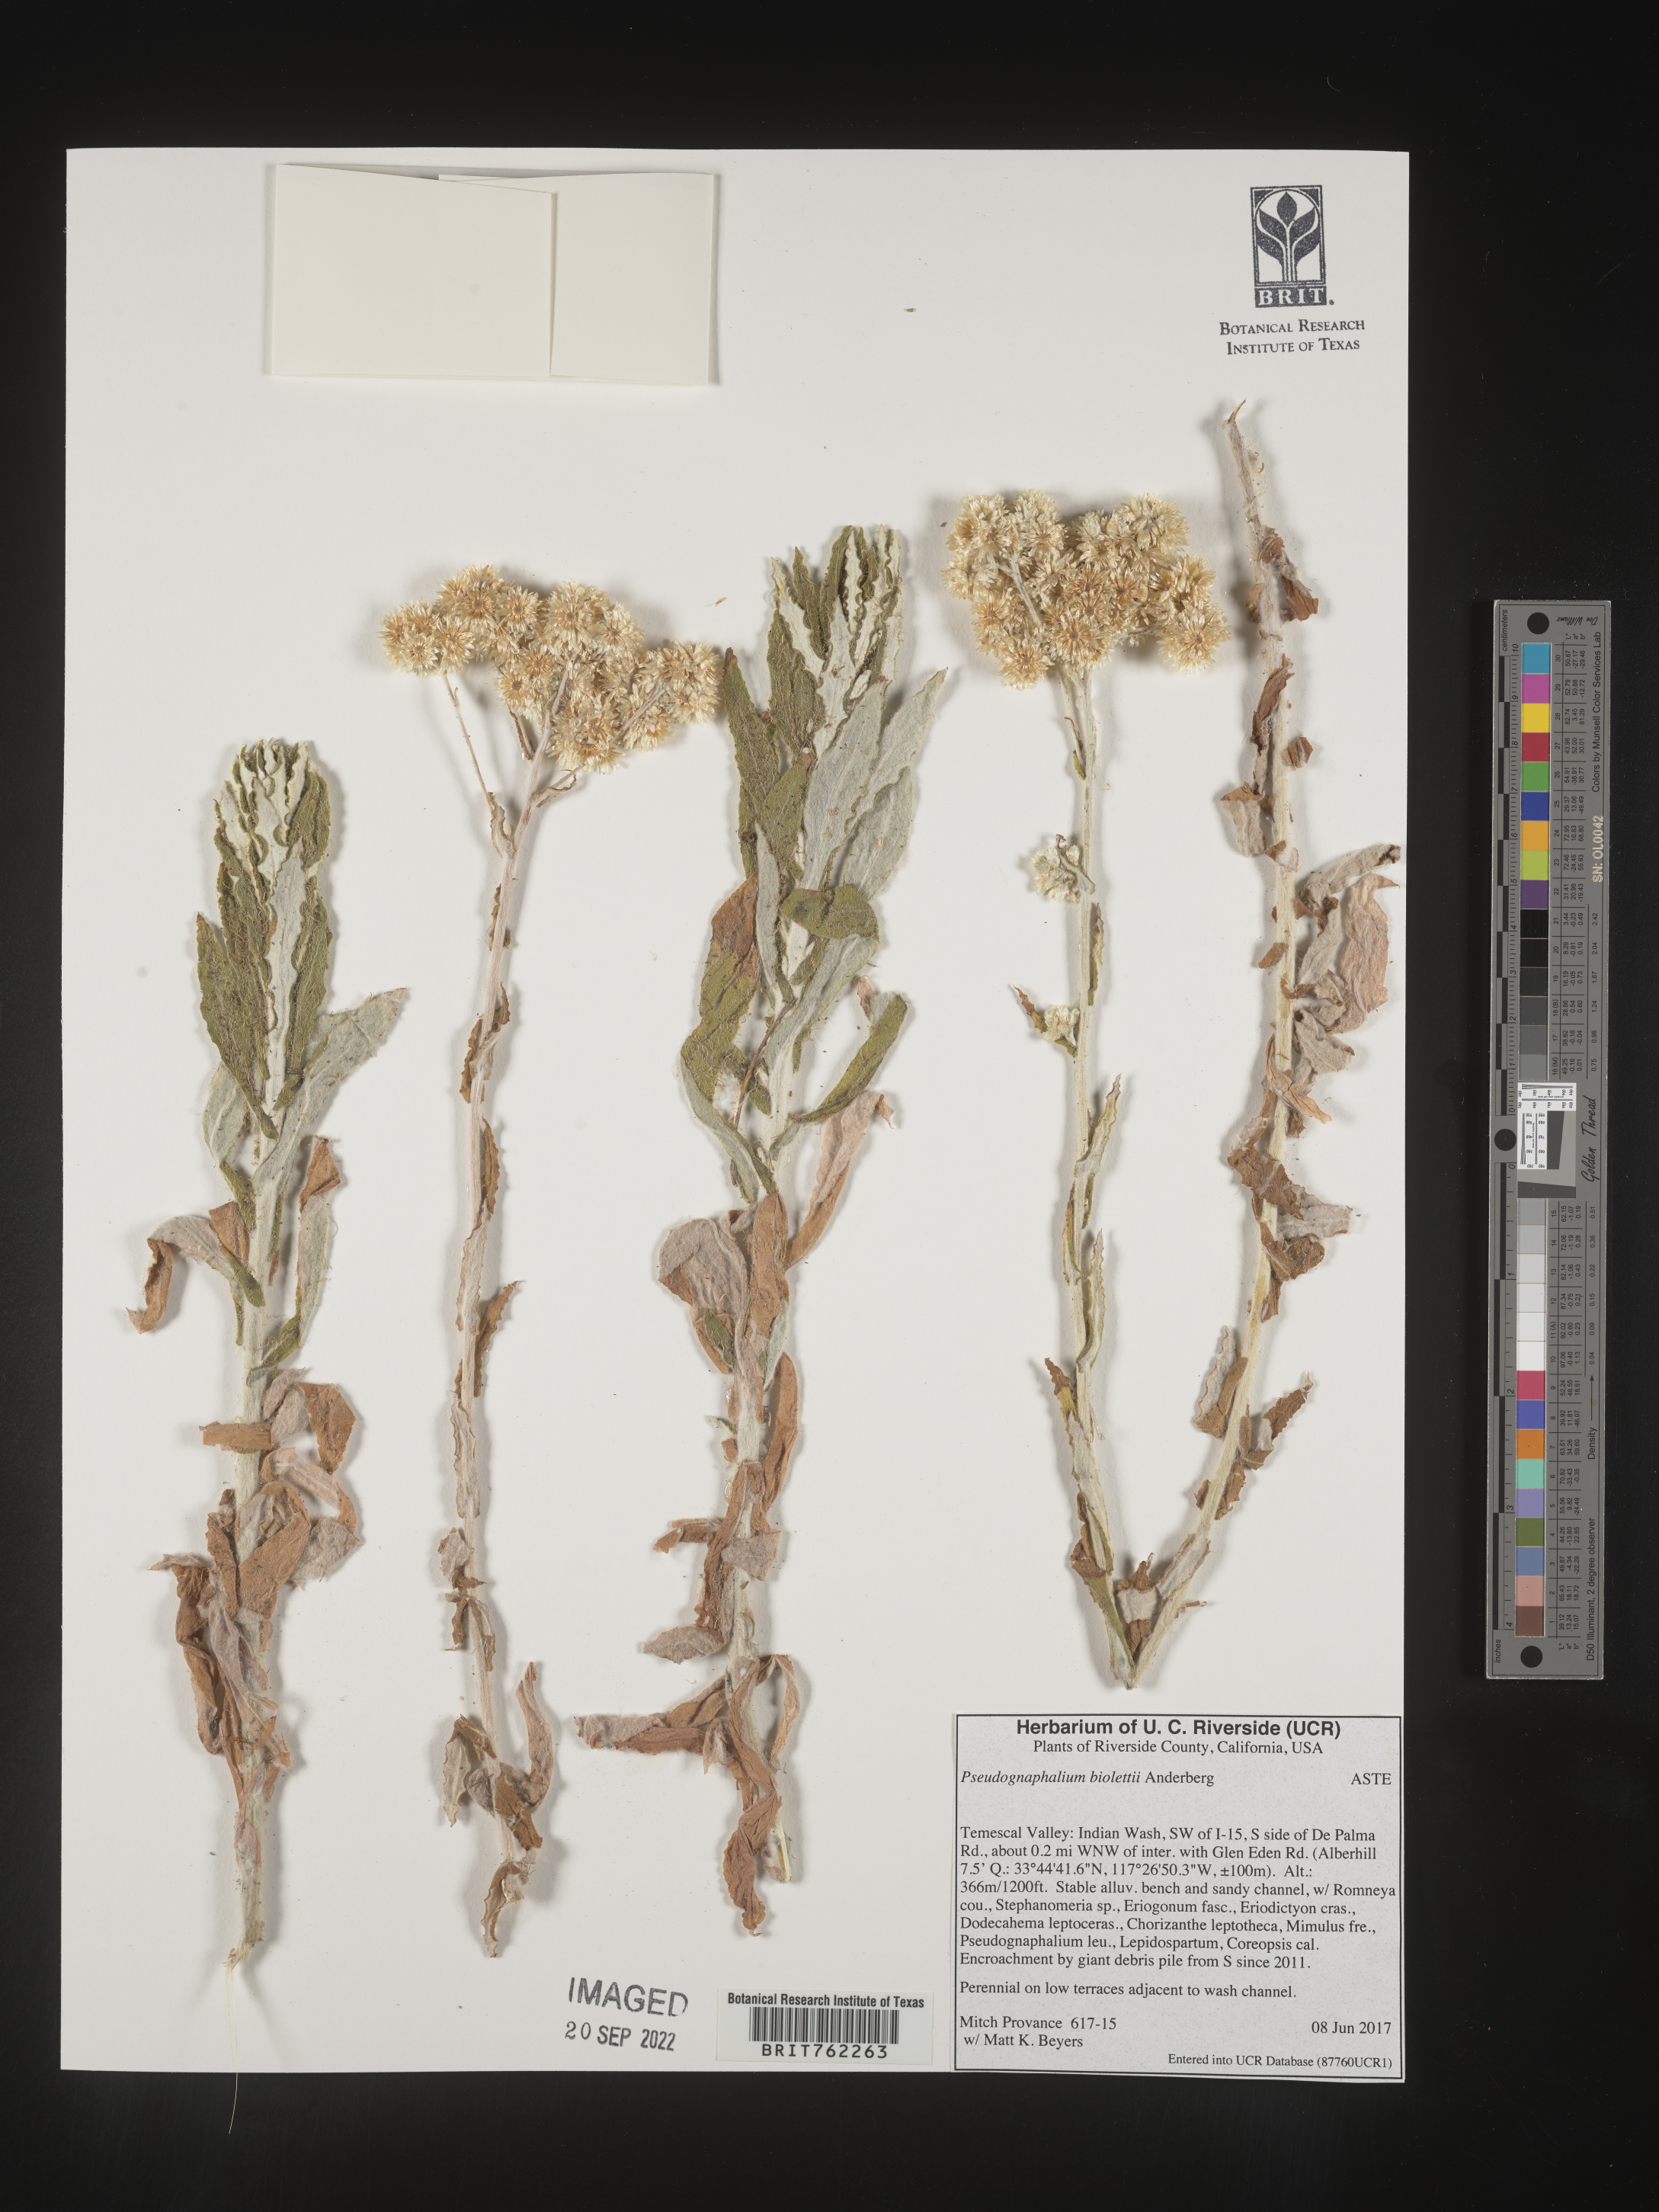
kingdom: Plantae
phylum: Tracheophyta
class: Magnoliopsida
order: Asterales
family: Asteraceae
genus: Pseudognaphalium
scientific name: Pseudognaphalium
